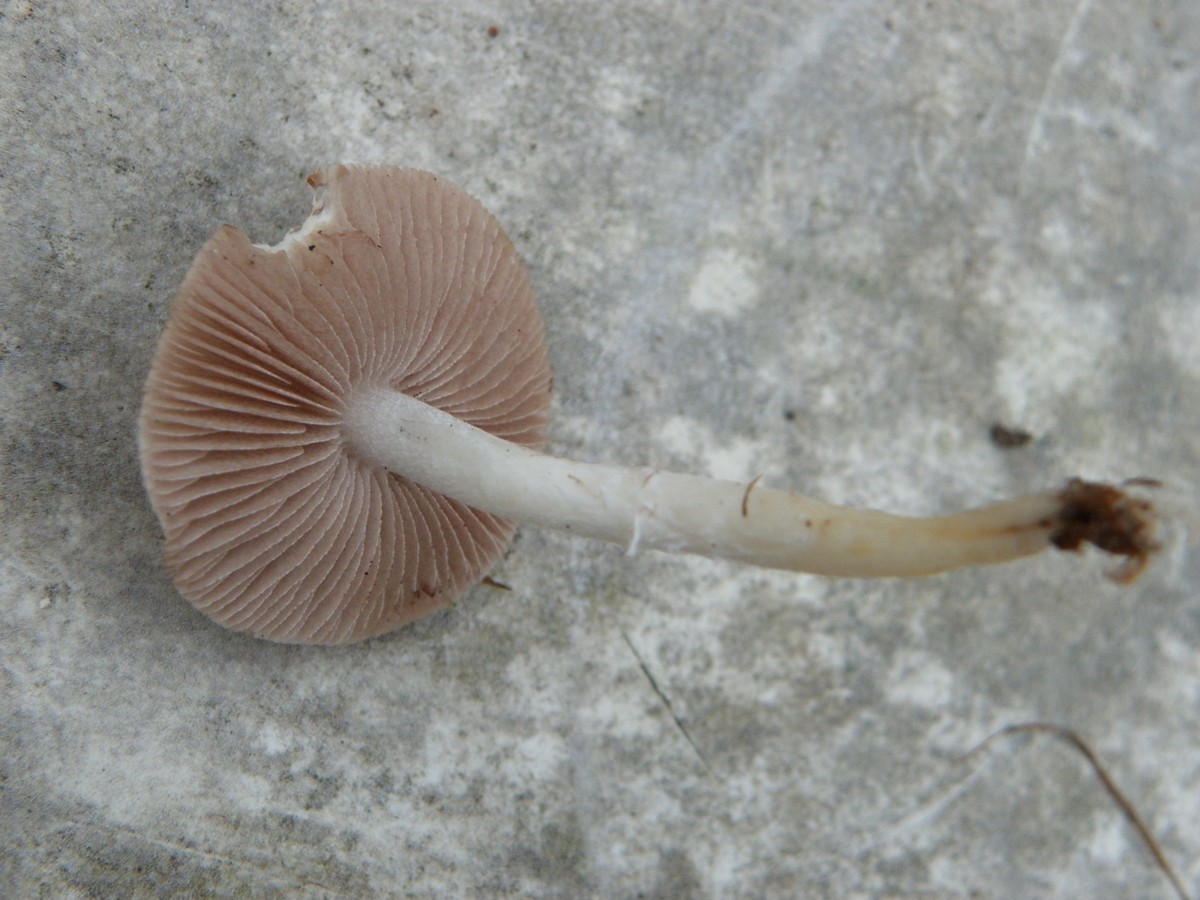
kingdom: Fungi
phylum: Basidiomycota
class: Agaricomycetes
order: Agaricales
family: Strophariaceae
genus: Stropharia
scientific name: Stropharia inuncta
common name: lillabrun bredblad
